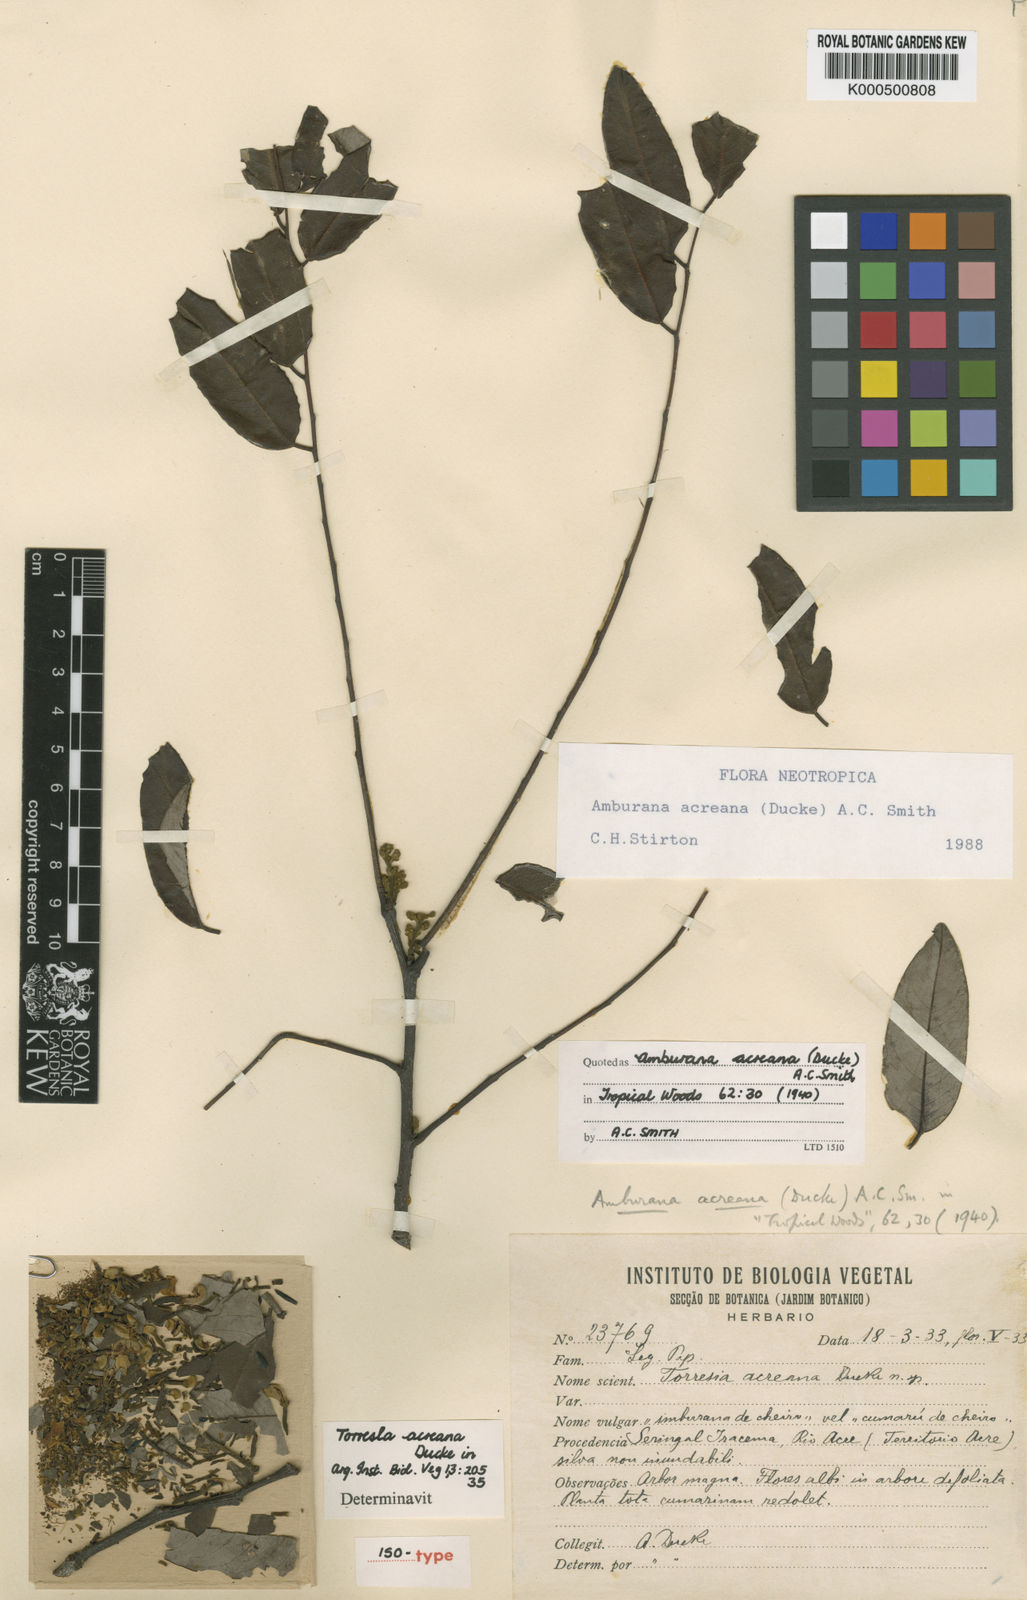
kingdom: Plantae
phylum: Tracheophyta
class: Magnoliopsida
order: Fabales
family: Fabaceae
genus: Amburana
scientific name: Amburana acreana
